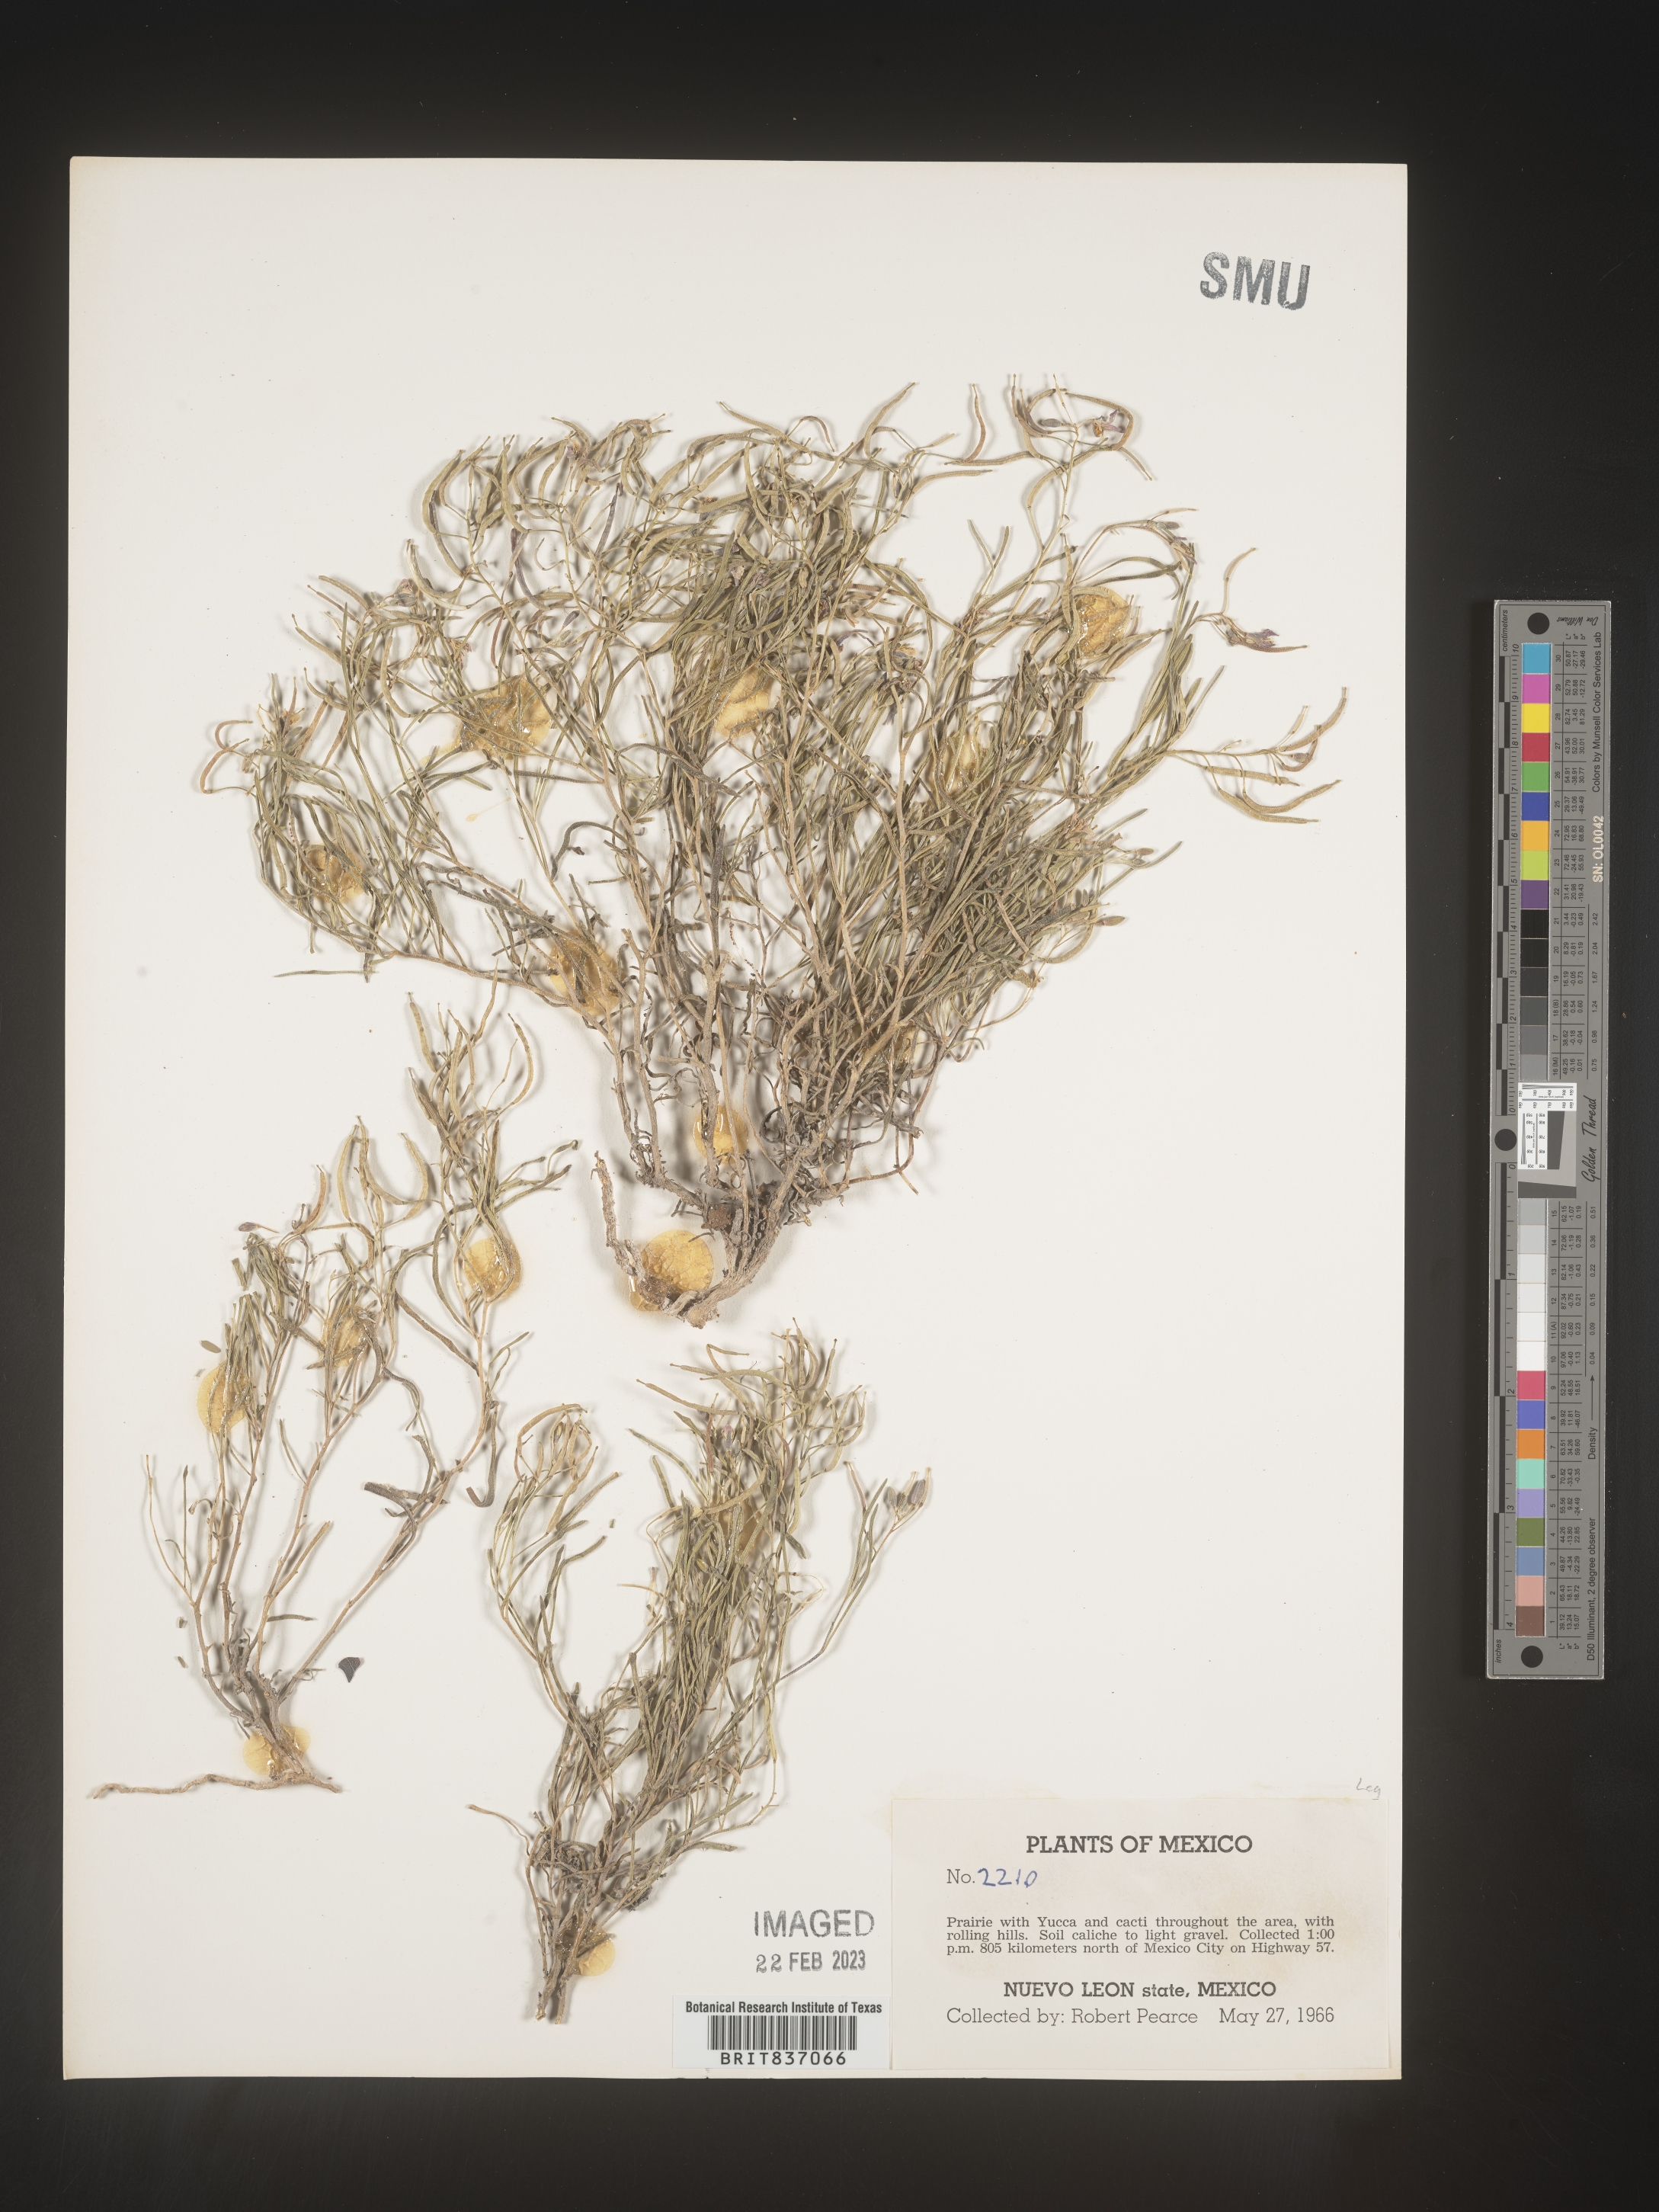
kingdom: Plantae
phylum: Tracheophyta
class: Magnoliopsida
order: Fabales
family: Fabaceae
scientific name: Fabaceae
